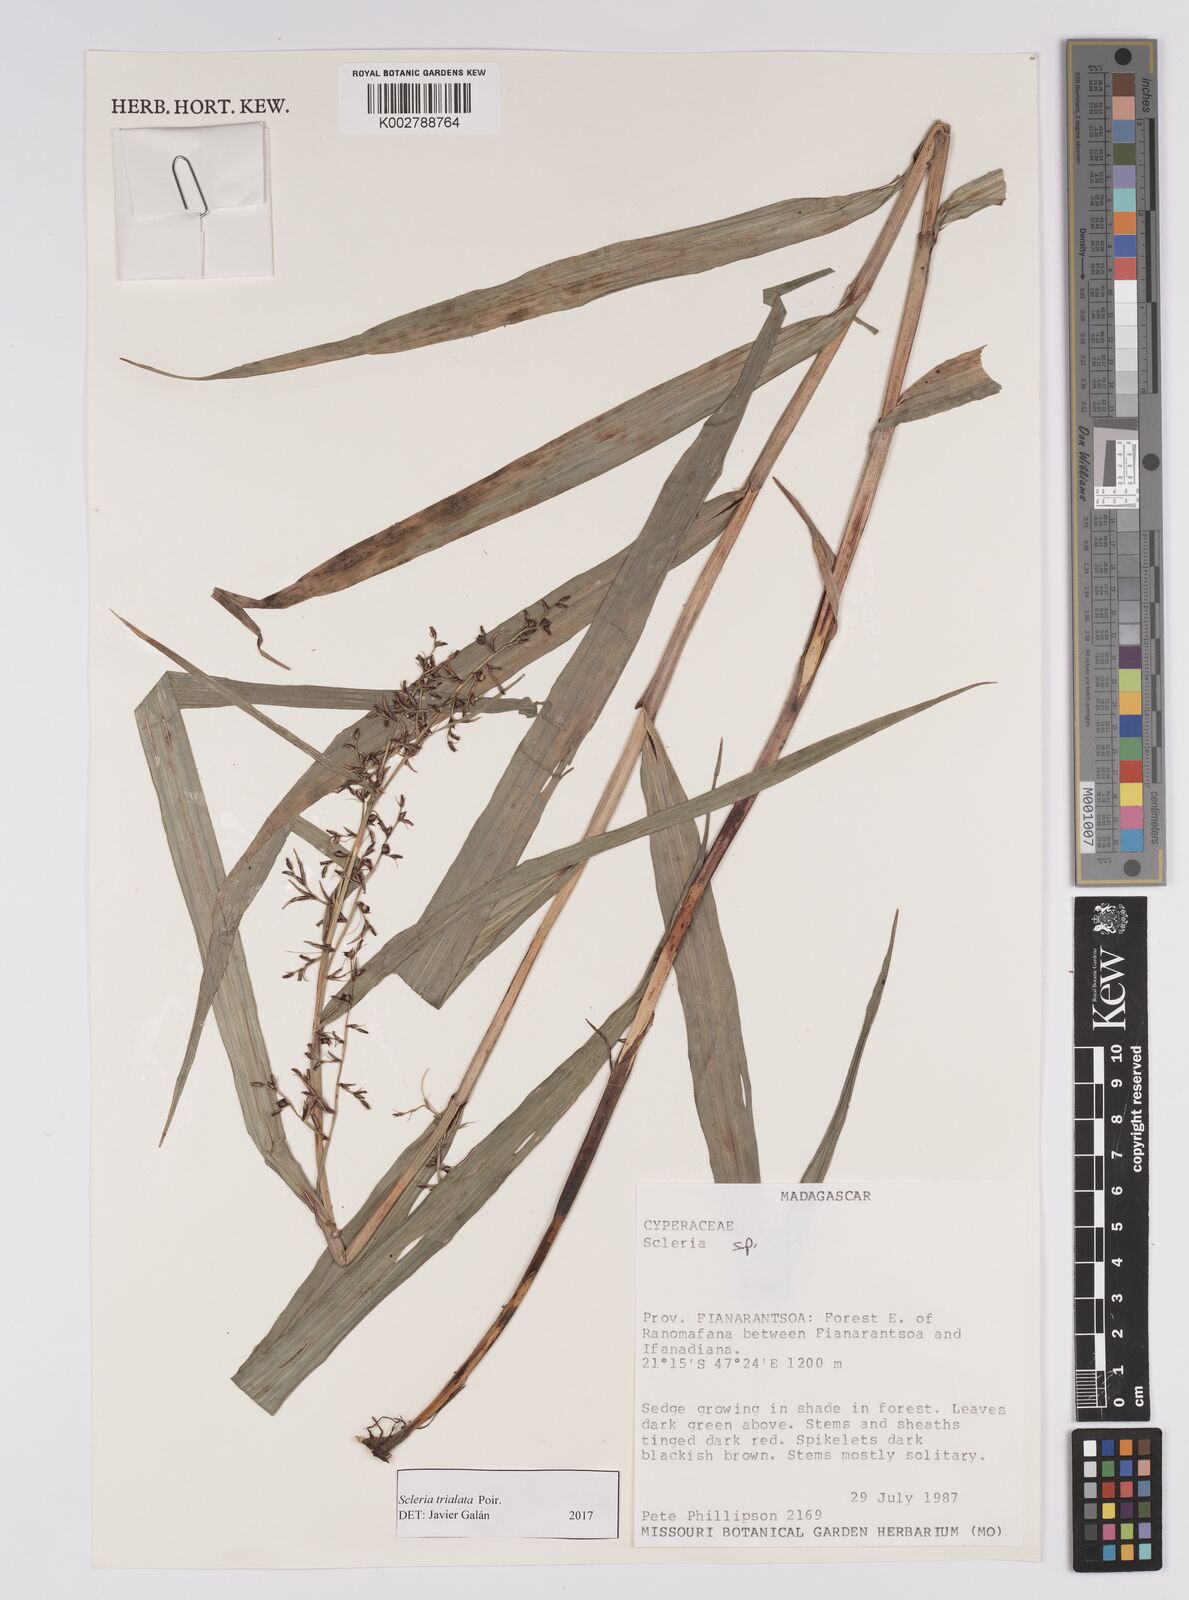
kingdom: Plantae
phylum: Tracheophyta
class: Liliopsida
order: Poales
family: Cyperaceae
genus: Scleria
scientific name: Scleria trialata
